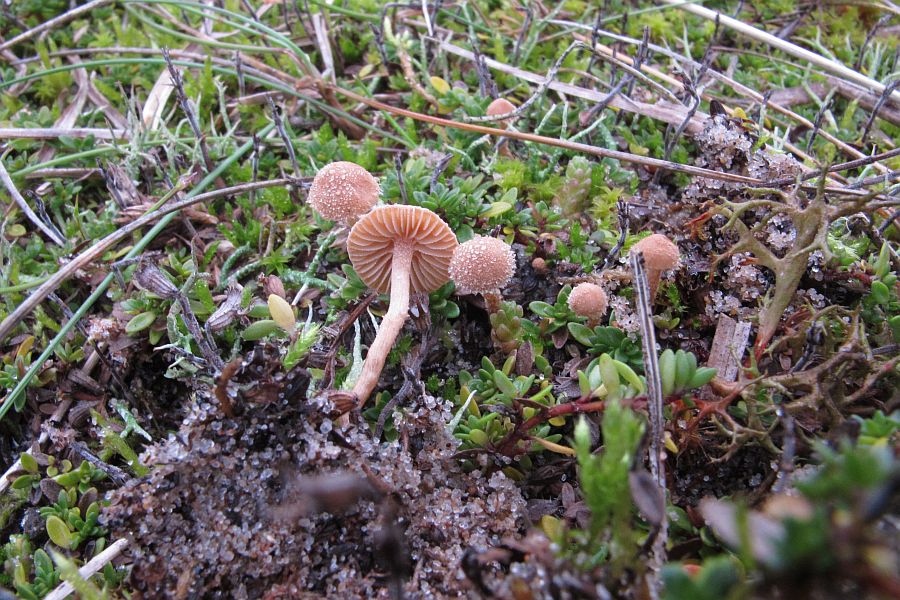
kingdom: Fungi
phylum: Basidiomycota
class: Agaricomycetes
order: Agaricales
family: Tubariaceae
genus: Flammulaster
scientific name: Flammulaster carpophilus
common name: bøge-grynskælhat
